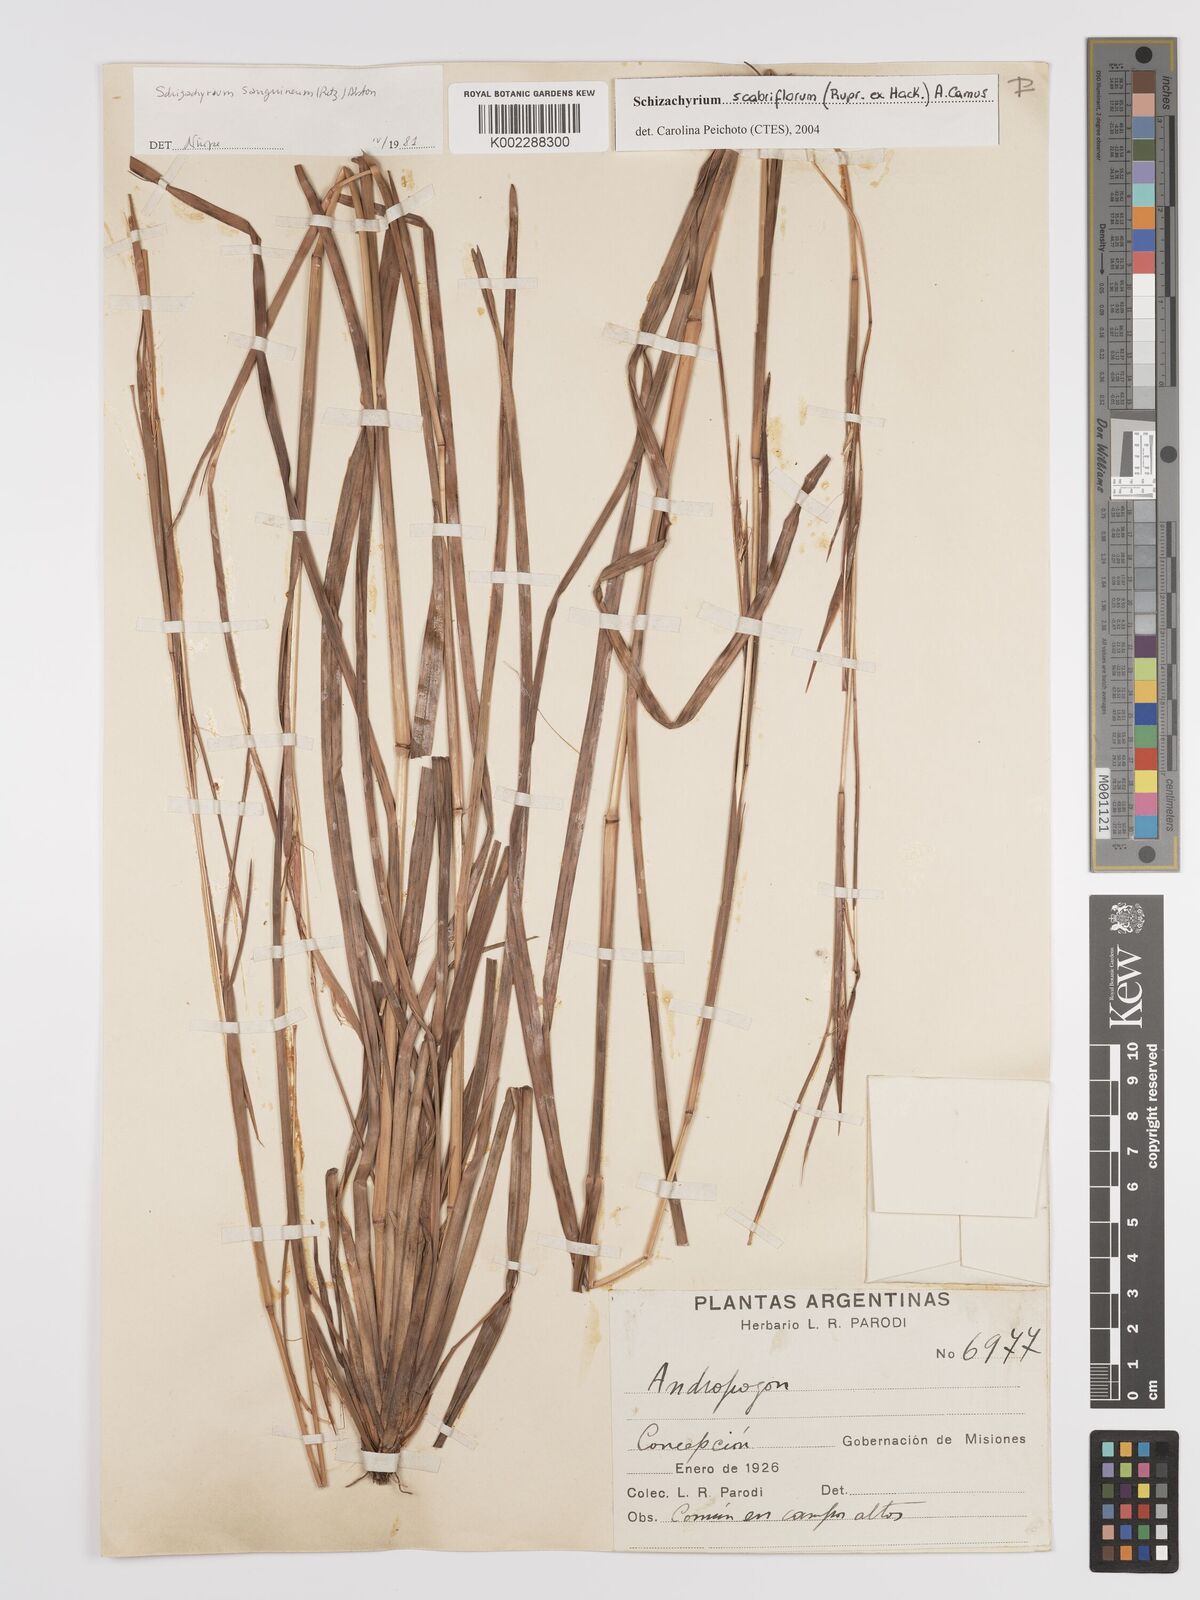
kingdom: Plantae
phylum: Tracheophyta
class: Liliopsida
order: Poales
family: Poaceae
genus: Schizachyrium
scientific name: Schizachyrium scabriflorum
